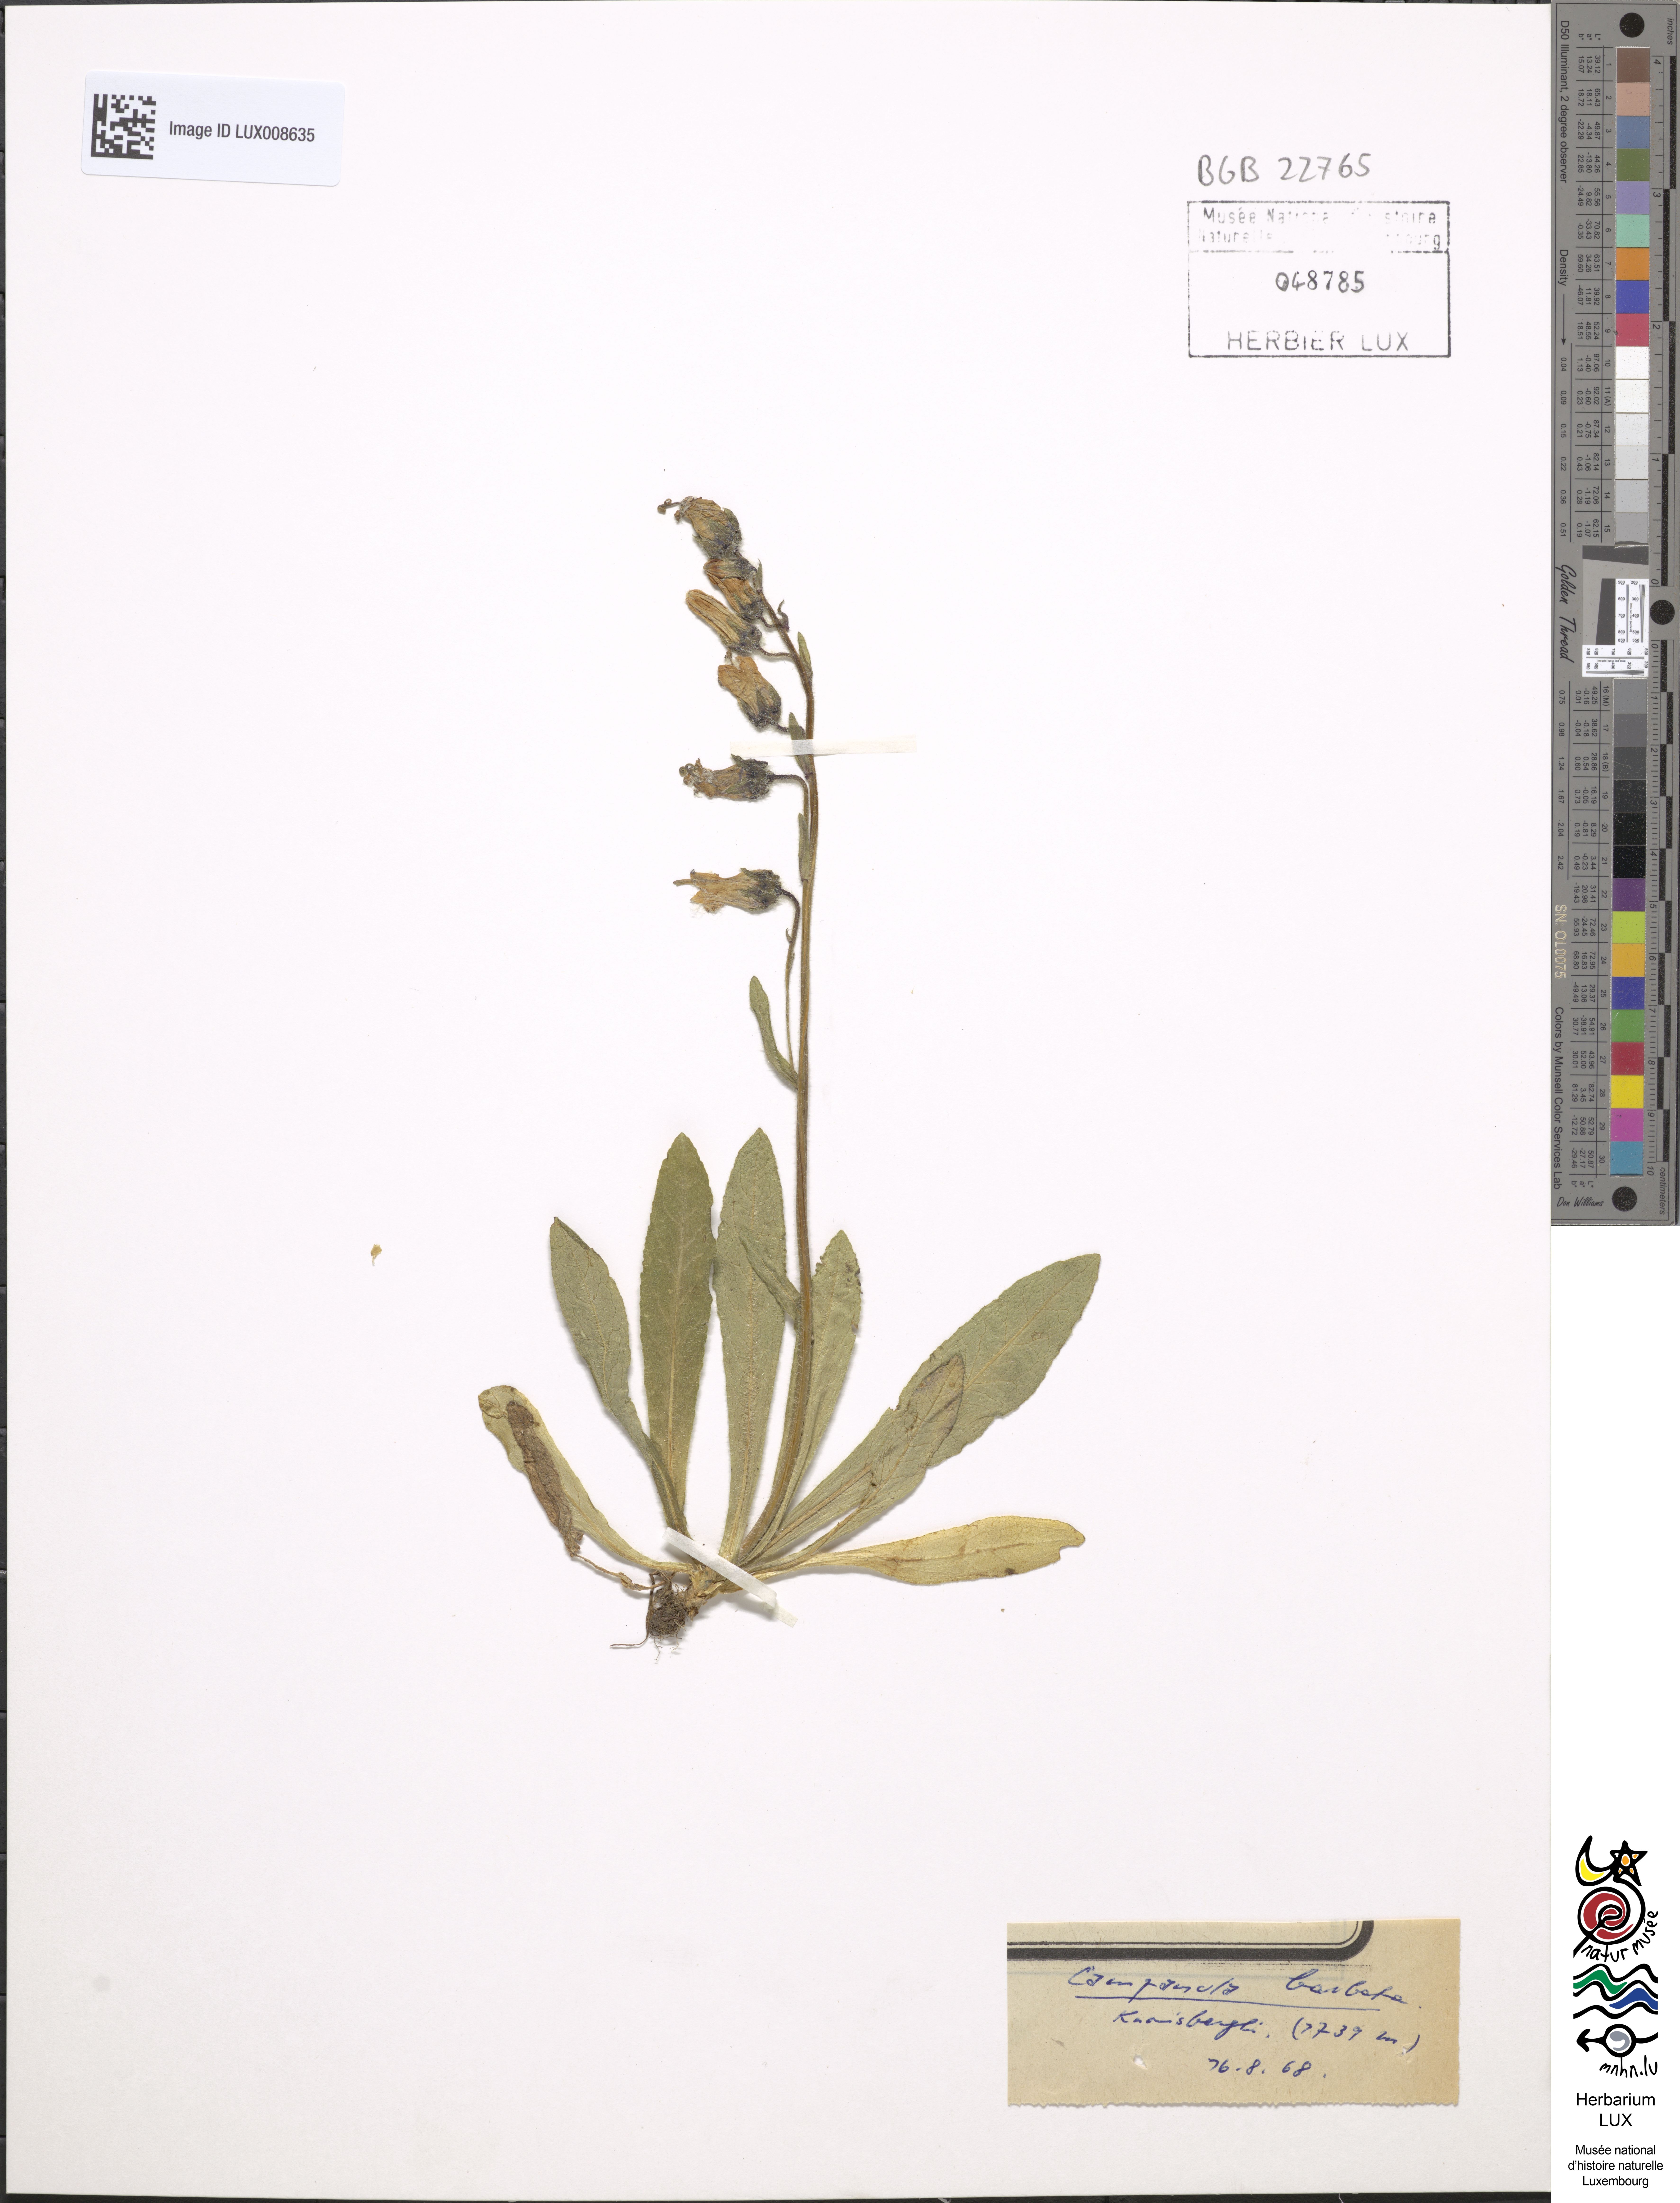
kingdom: Plantae
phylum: Tracheophyta
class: Magnoliopsida
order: Asterales
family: Campanulaceae
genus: Campanula
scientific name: Campanula barbata
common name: Bearded bellflower
